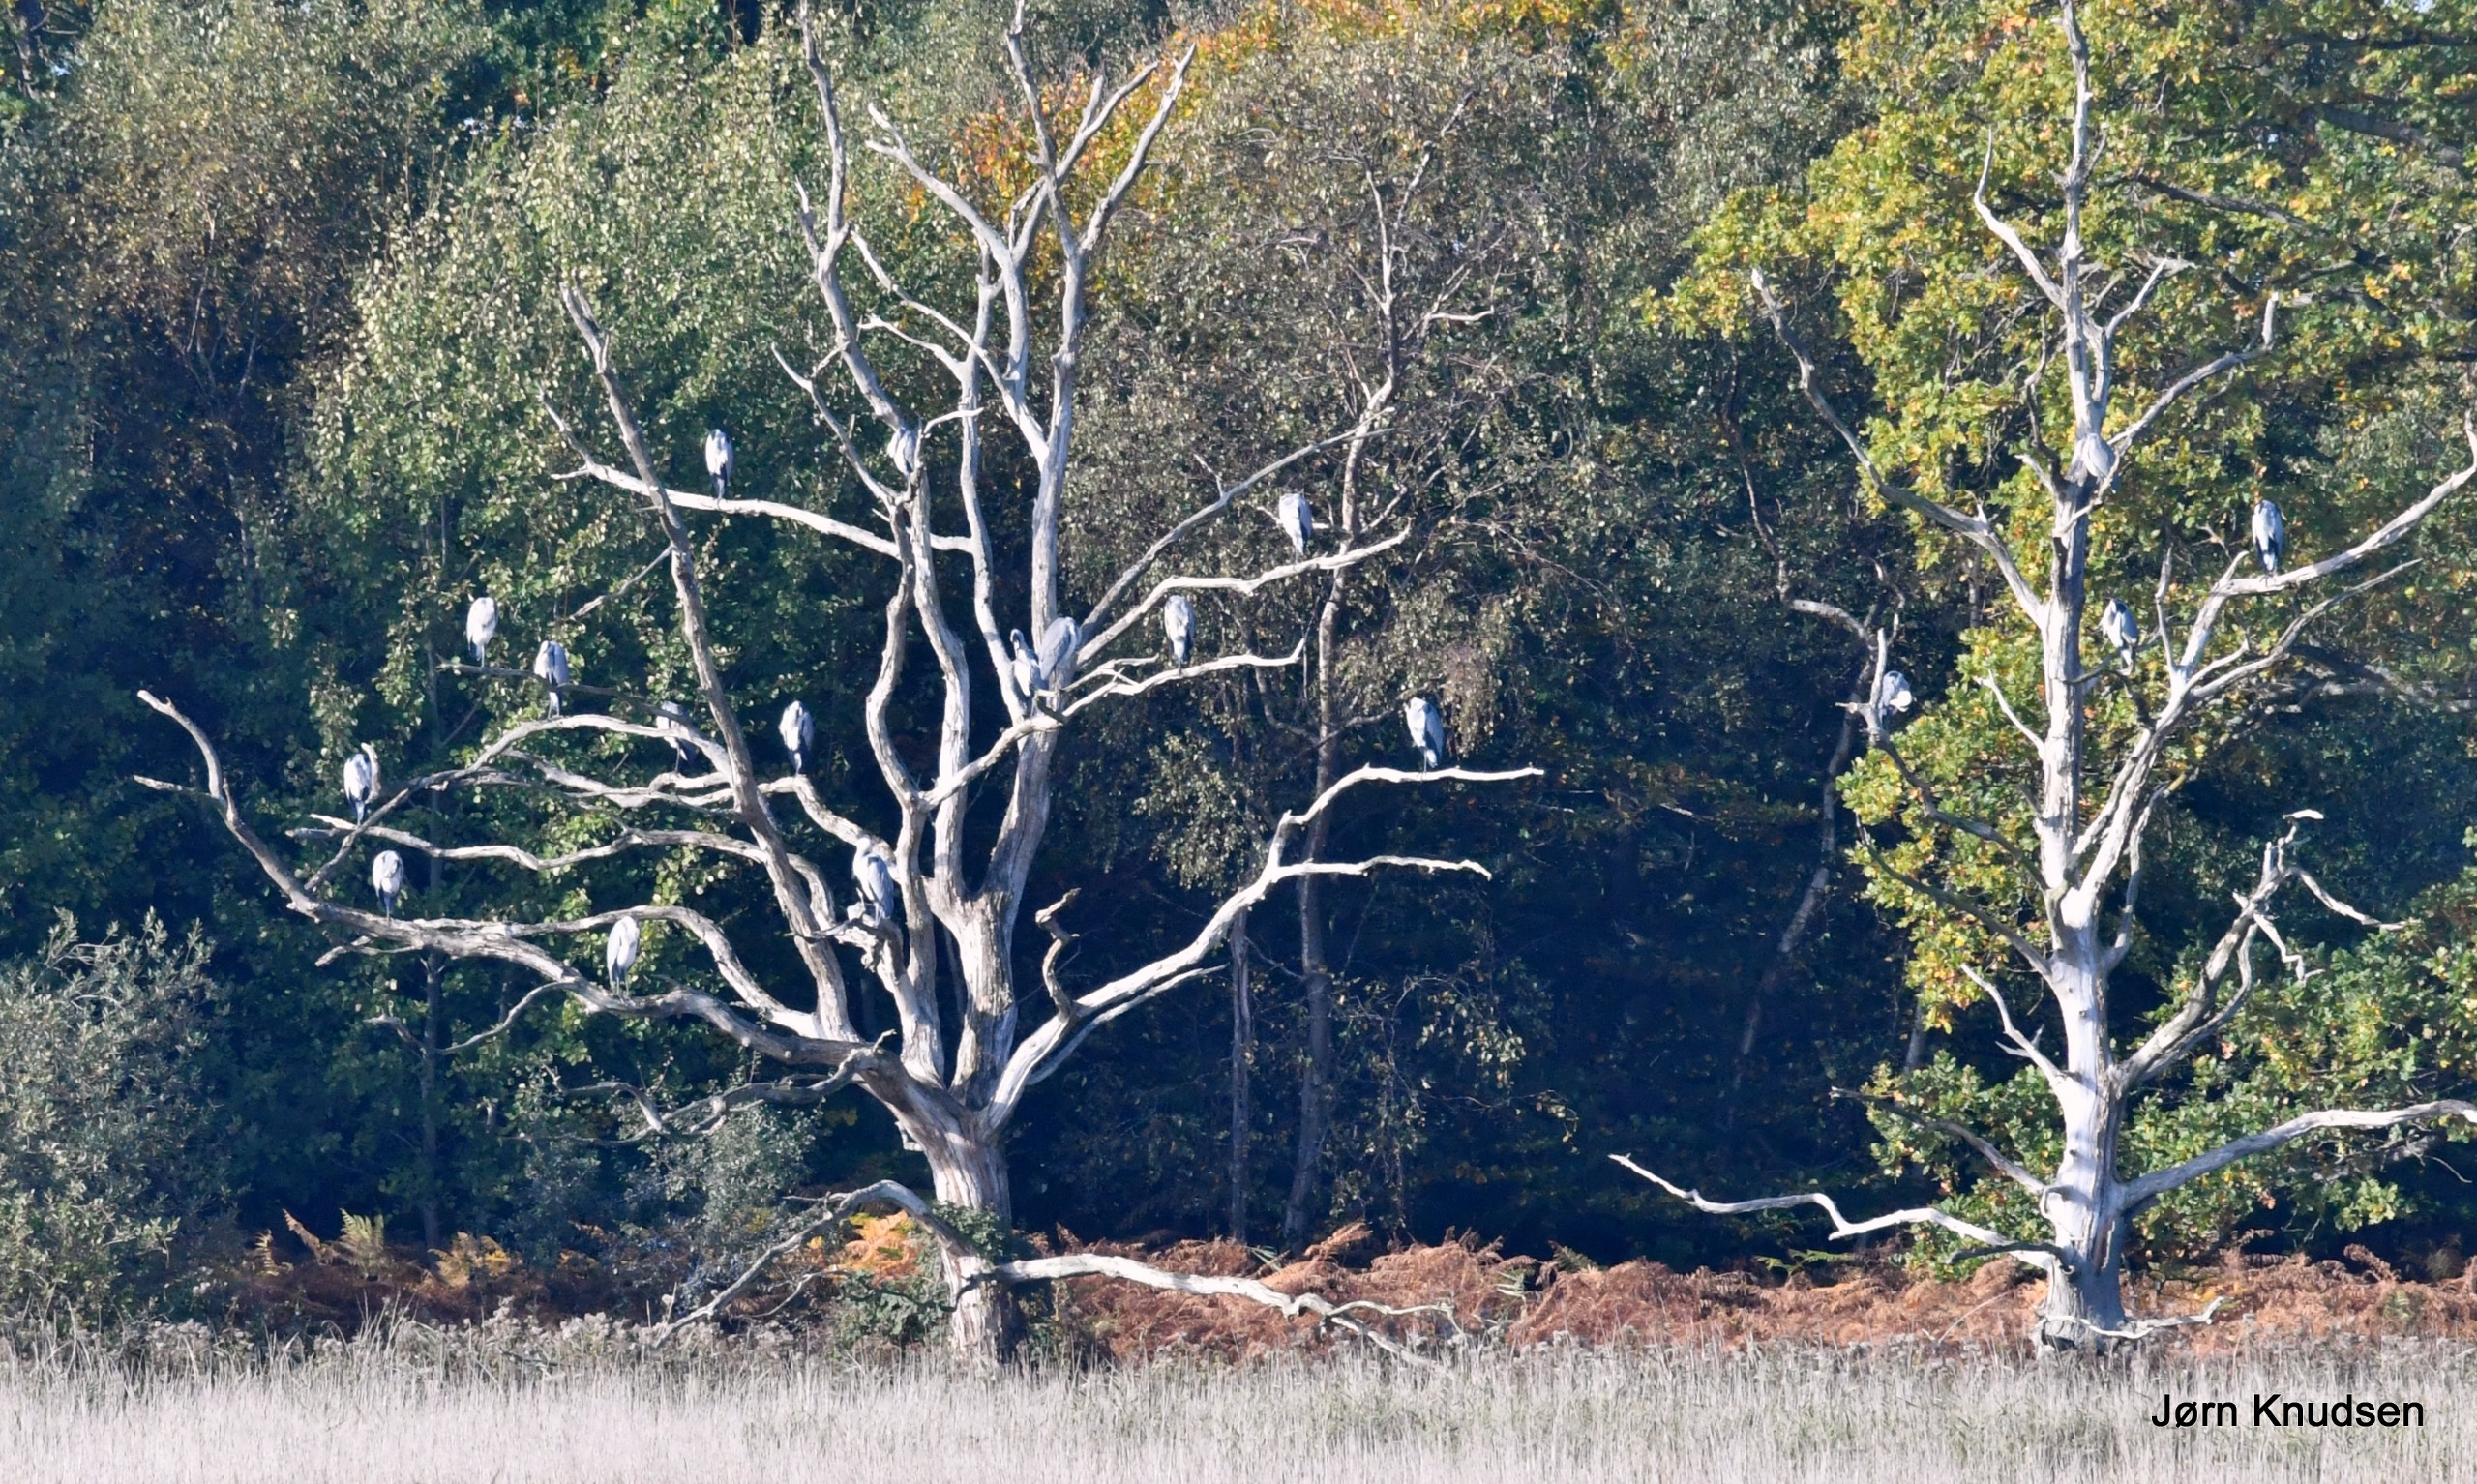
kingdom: Animalia
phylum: Chordata
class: Aves
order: Pelecaniformes
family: Ardeidae
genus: Ardea
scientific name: Ardea cinerea
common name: Fiskehejre
